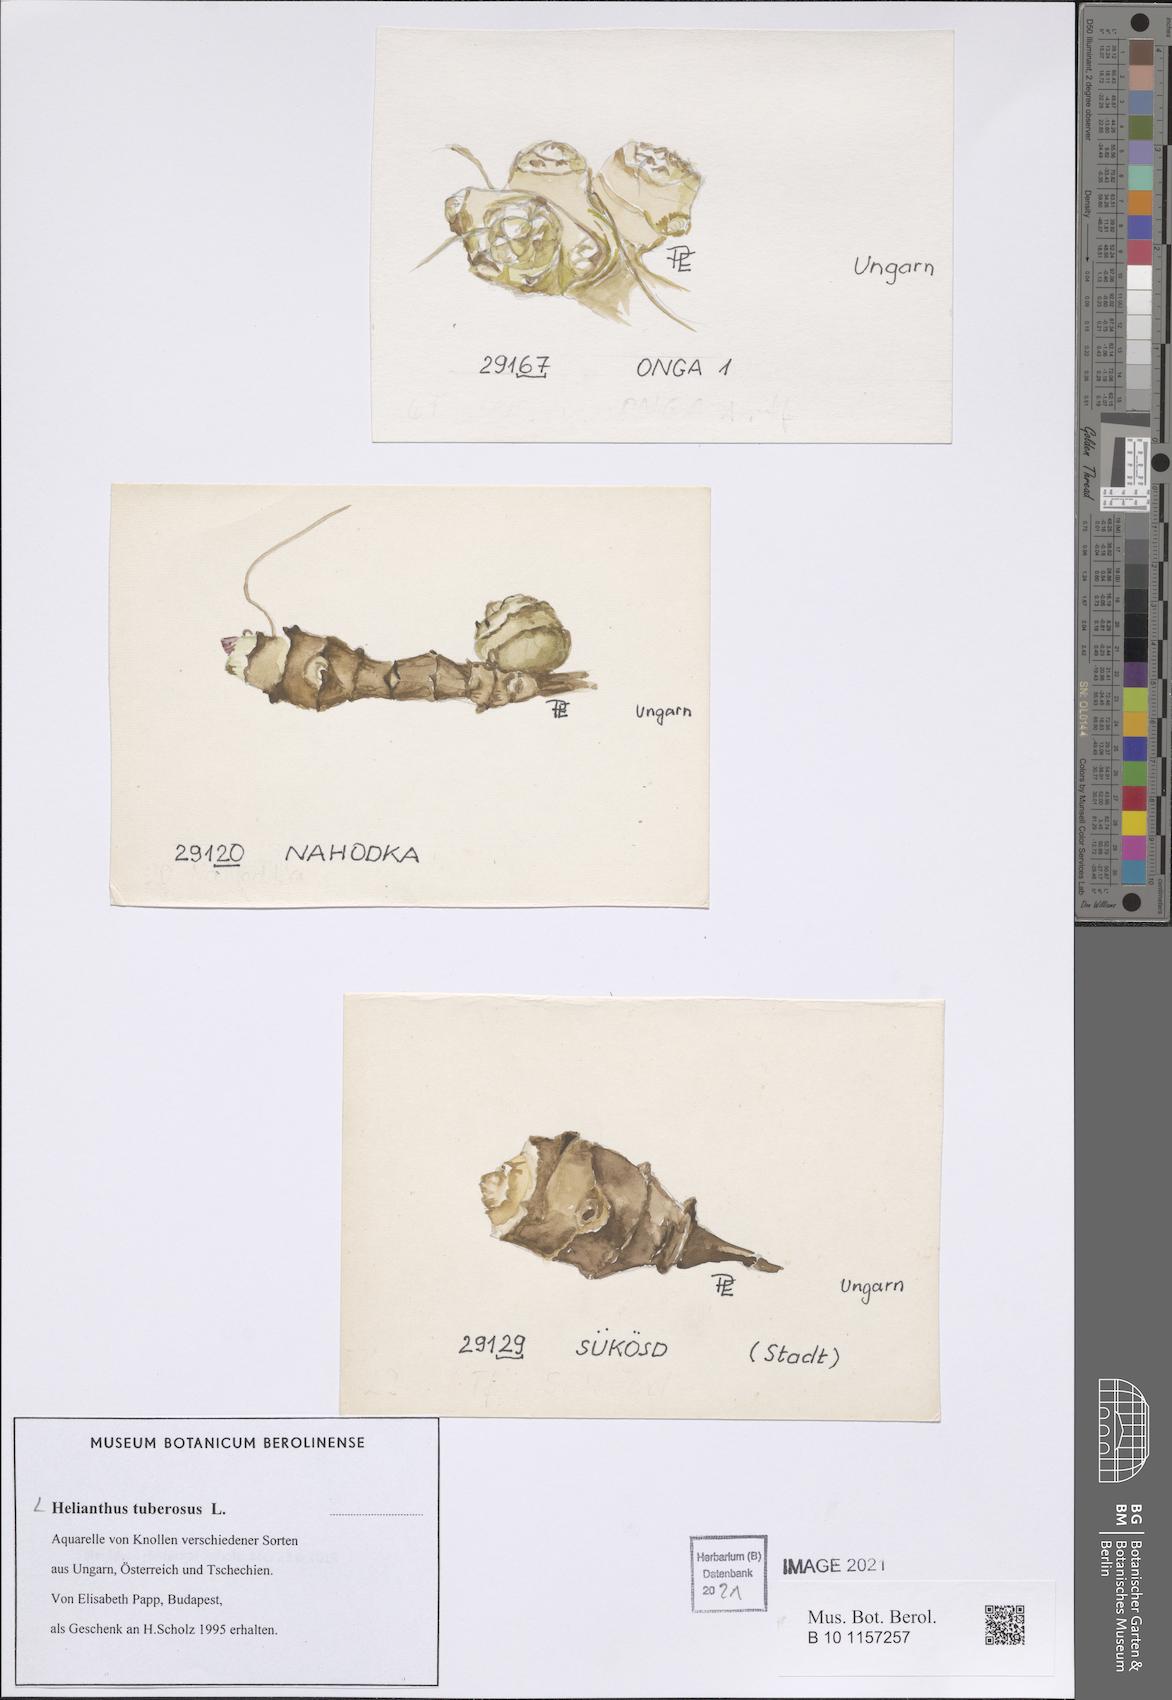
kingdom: Plantae
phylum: Tracheophyta
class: Magnoliopsida
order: Asterales
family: Asteraceae
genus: Helianthus
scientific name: Helianthus tuberosus
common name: Jerusalem artichoke
